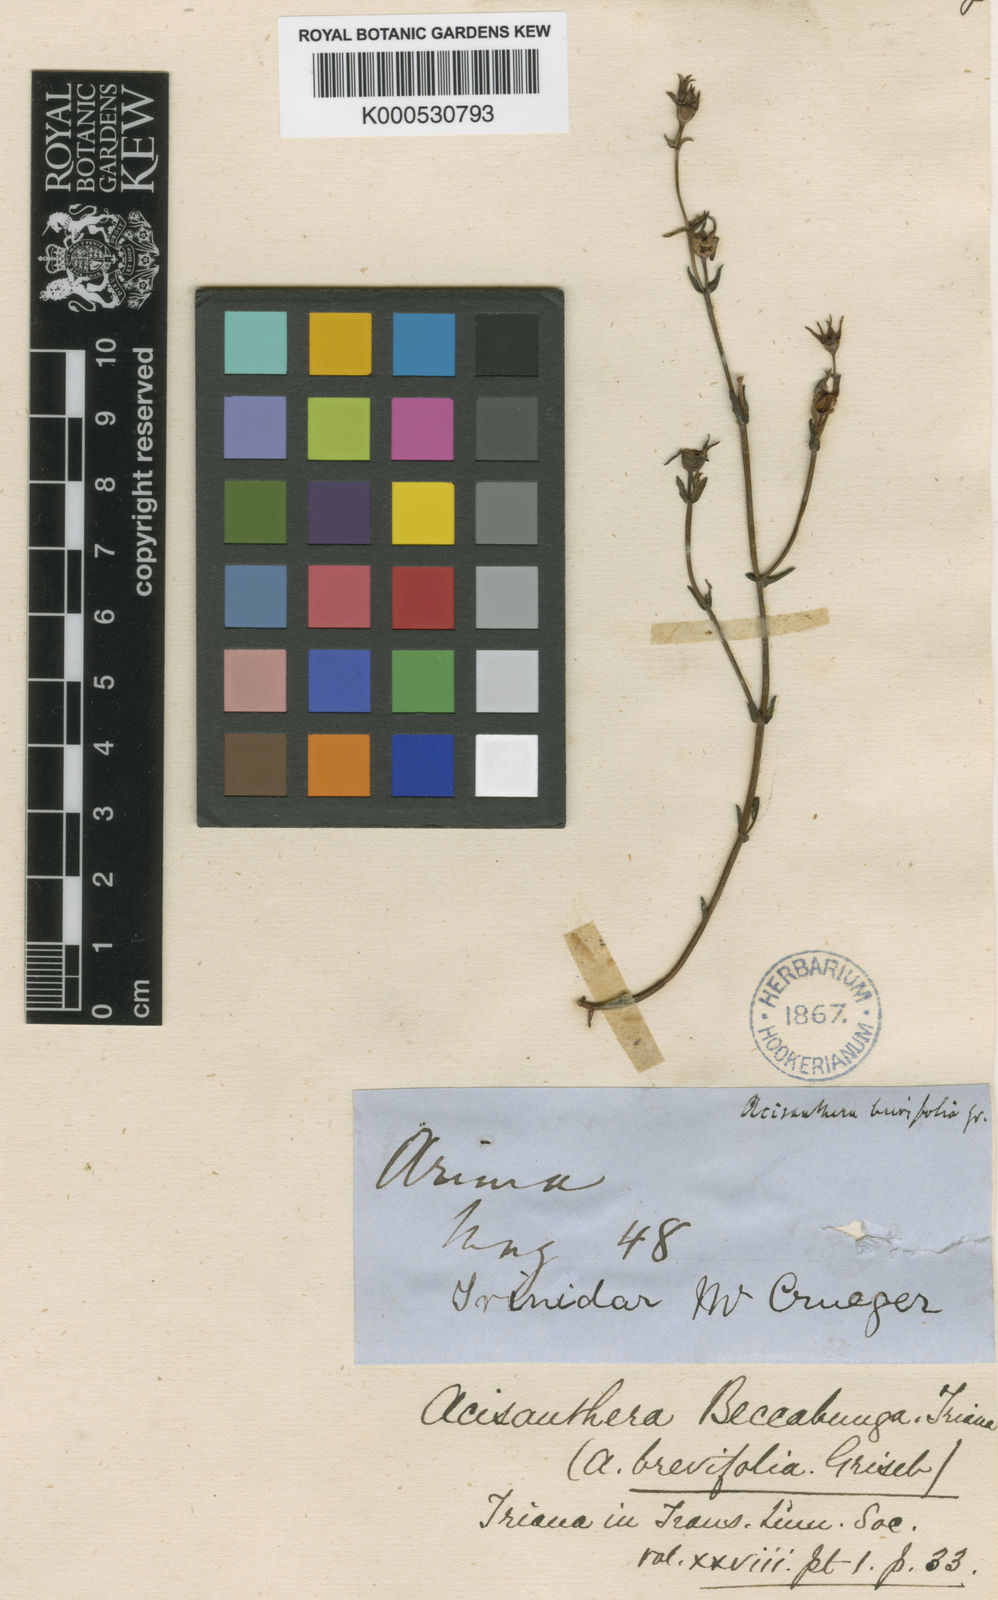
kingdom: Plantae
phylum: Tracheophyta
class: Magnoliopsida
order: Myrtales
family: Melastomataceae
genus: Noterophila
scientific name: Noterophila bivalvis
